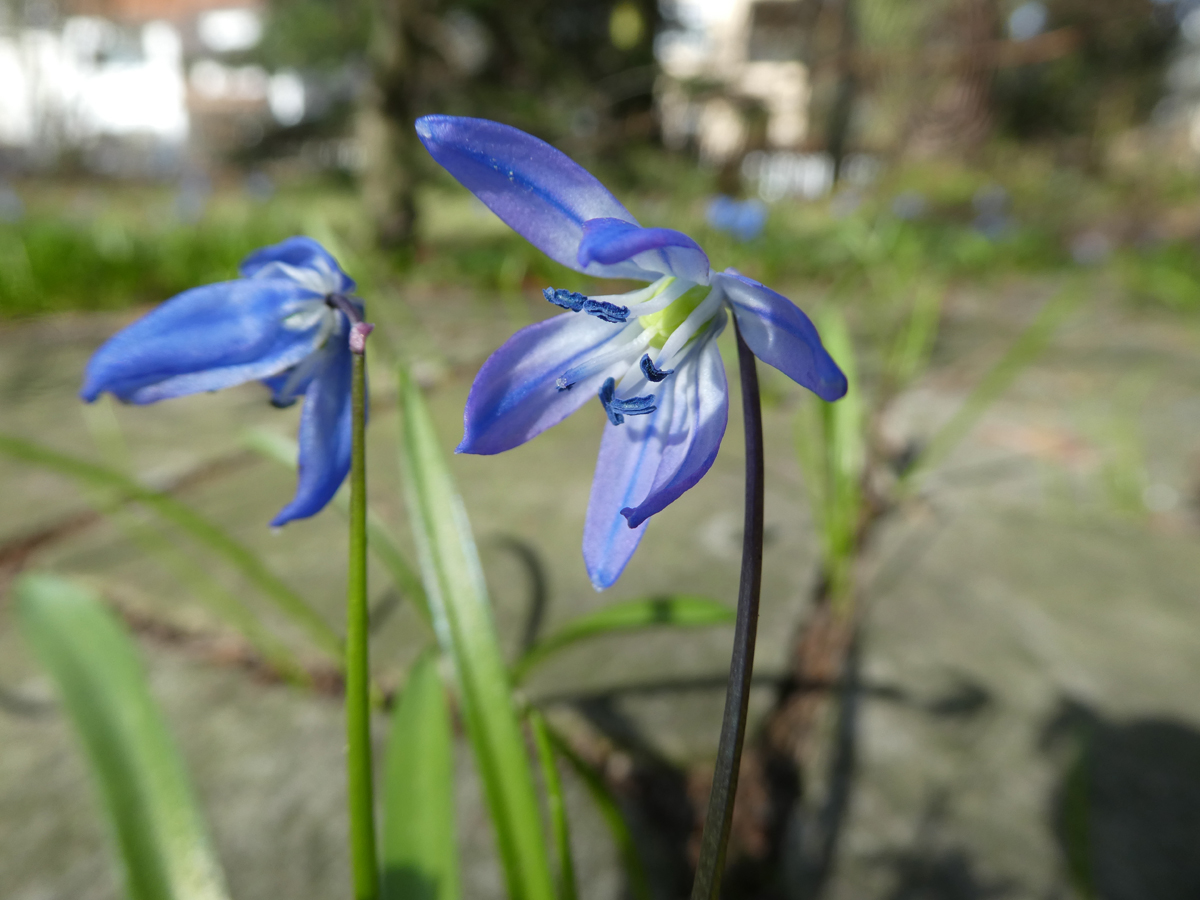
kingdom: Plantae
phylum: Tracheophyta
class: Liliopsida
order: Asparagales
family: Asparagaceae
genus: Scilla
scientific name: Scilla siberica
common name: Siberian squill
